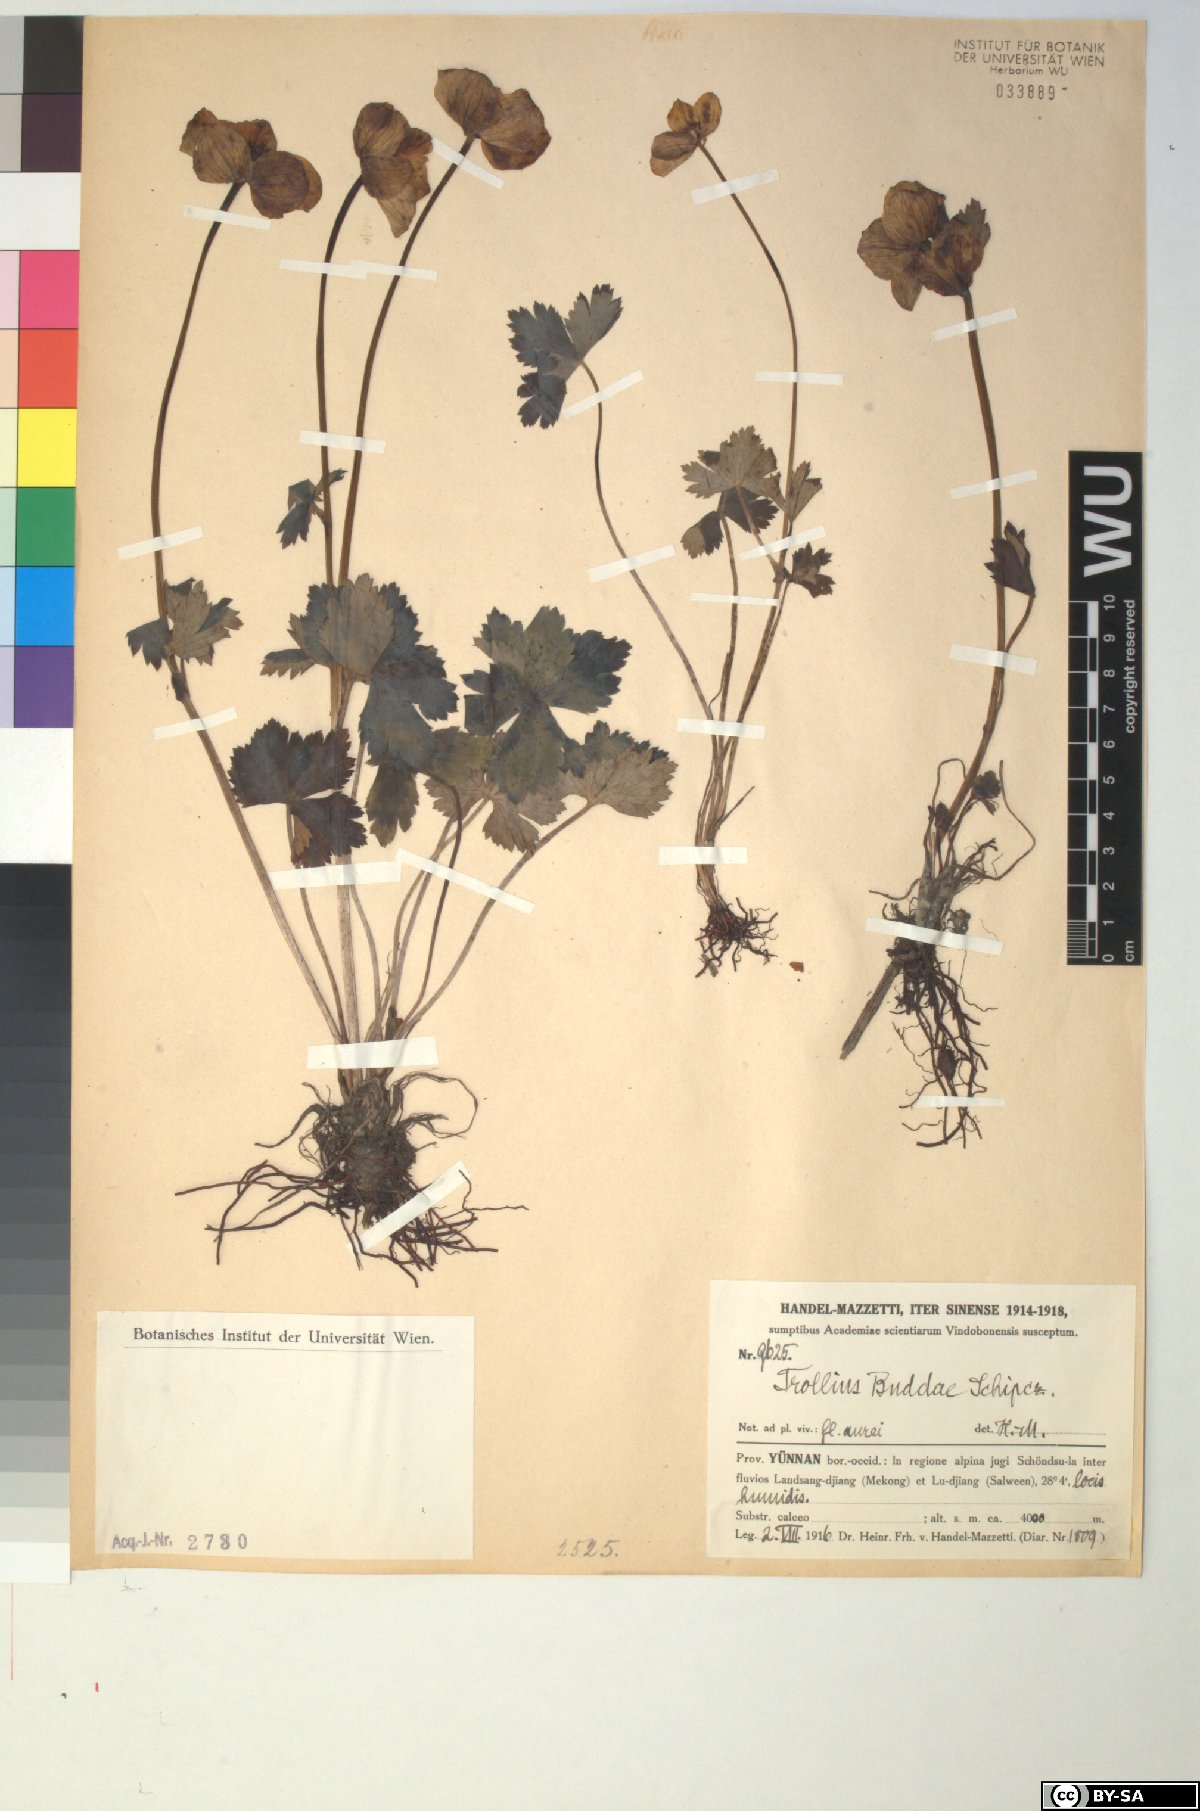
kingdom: Plantae
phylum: Tracheophyta
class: Magnoliopsida
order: Ranunculales
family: Ranunculaceae
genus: Trollius
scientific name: Trollius buddae
